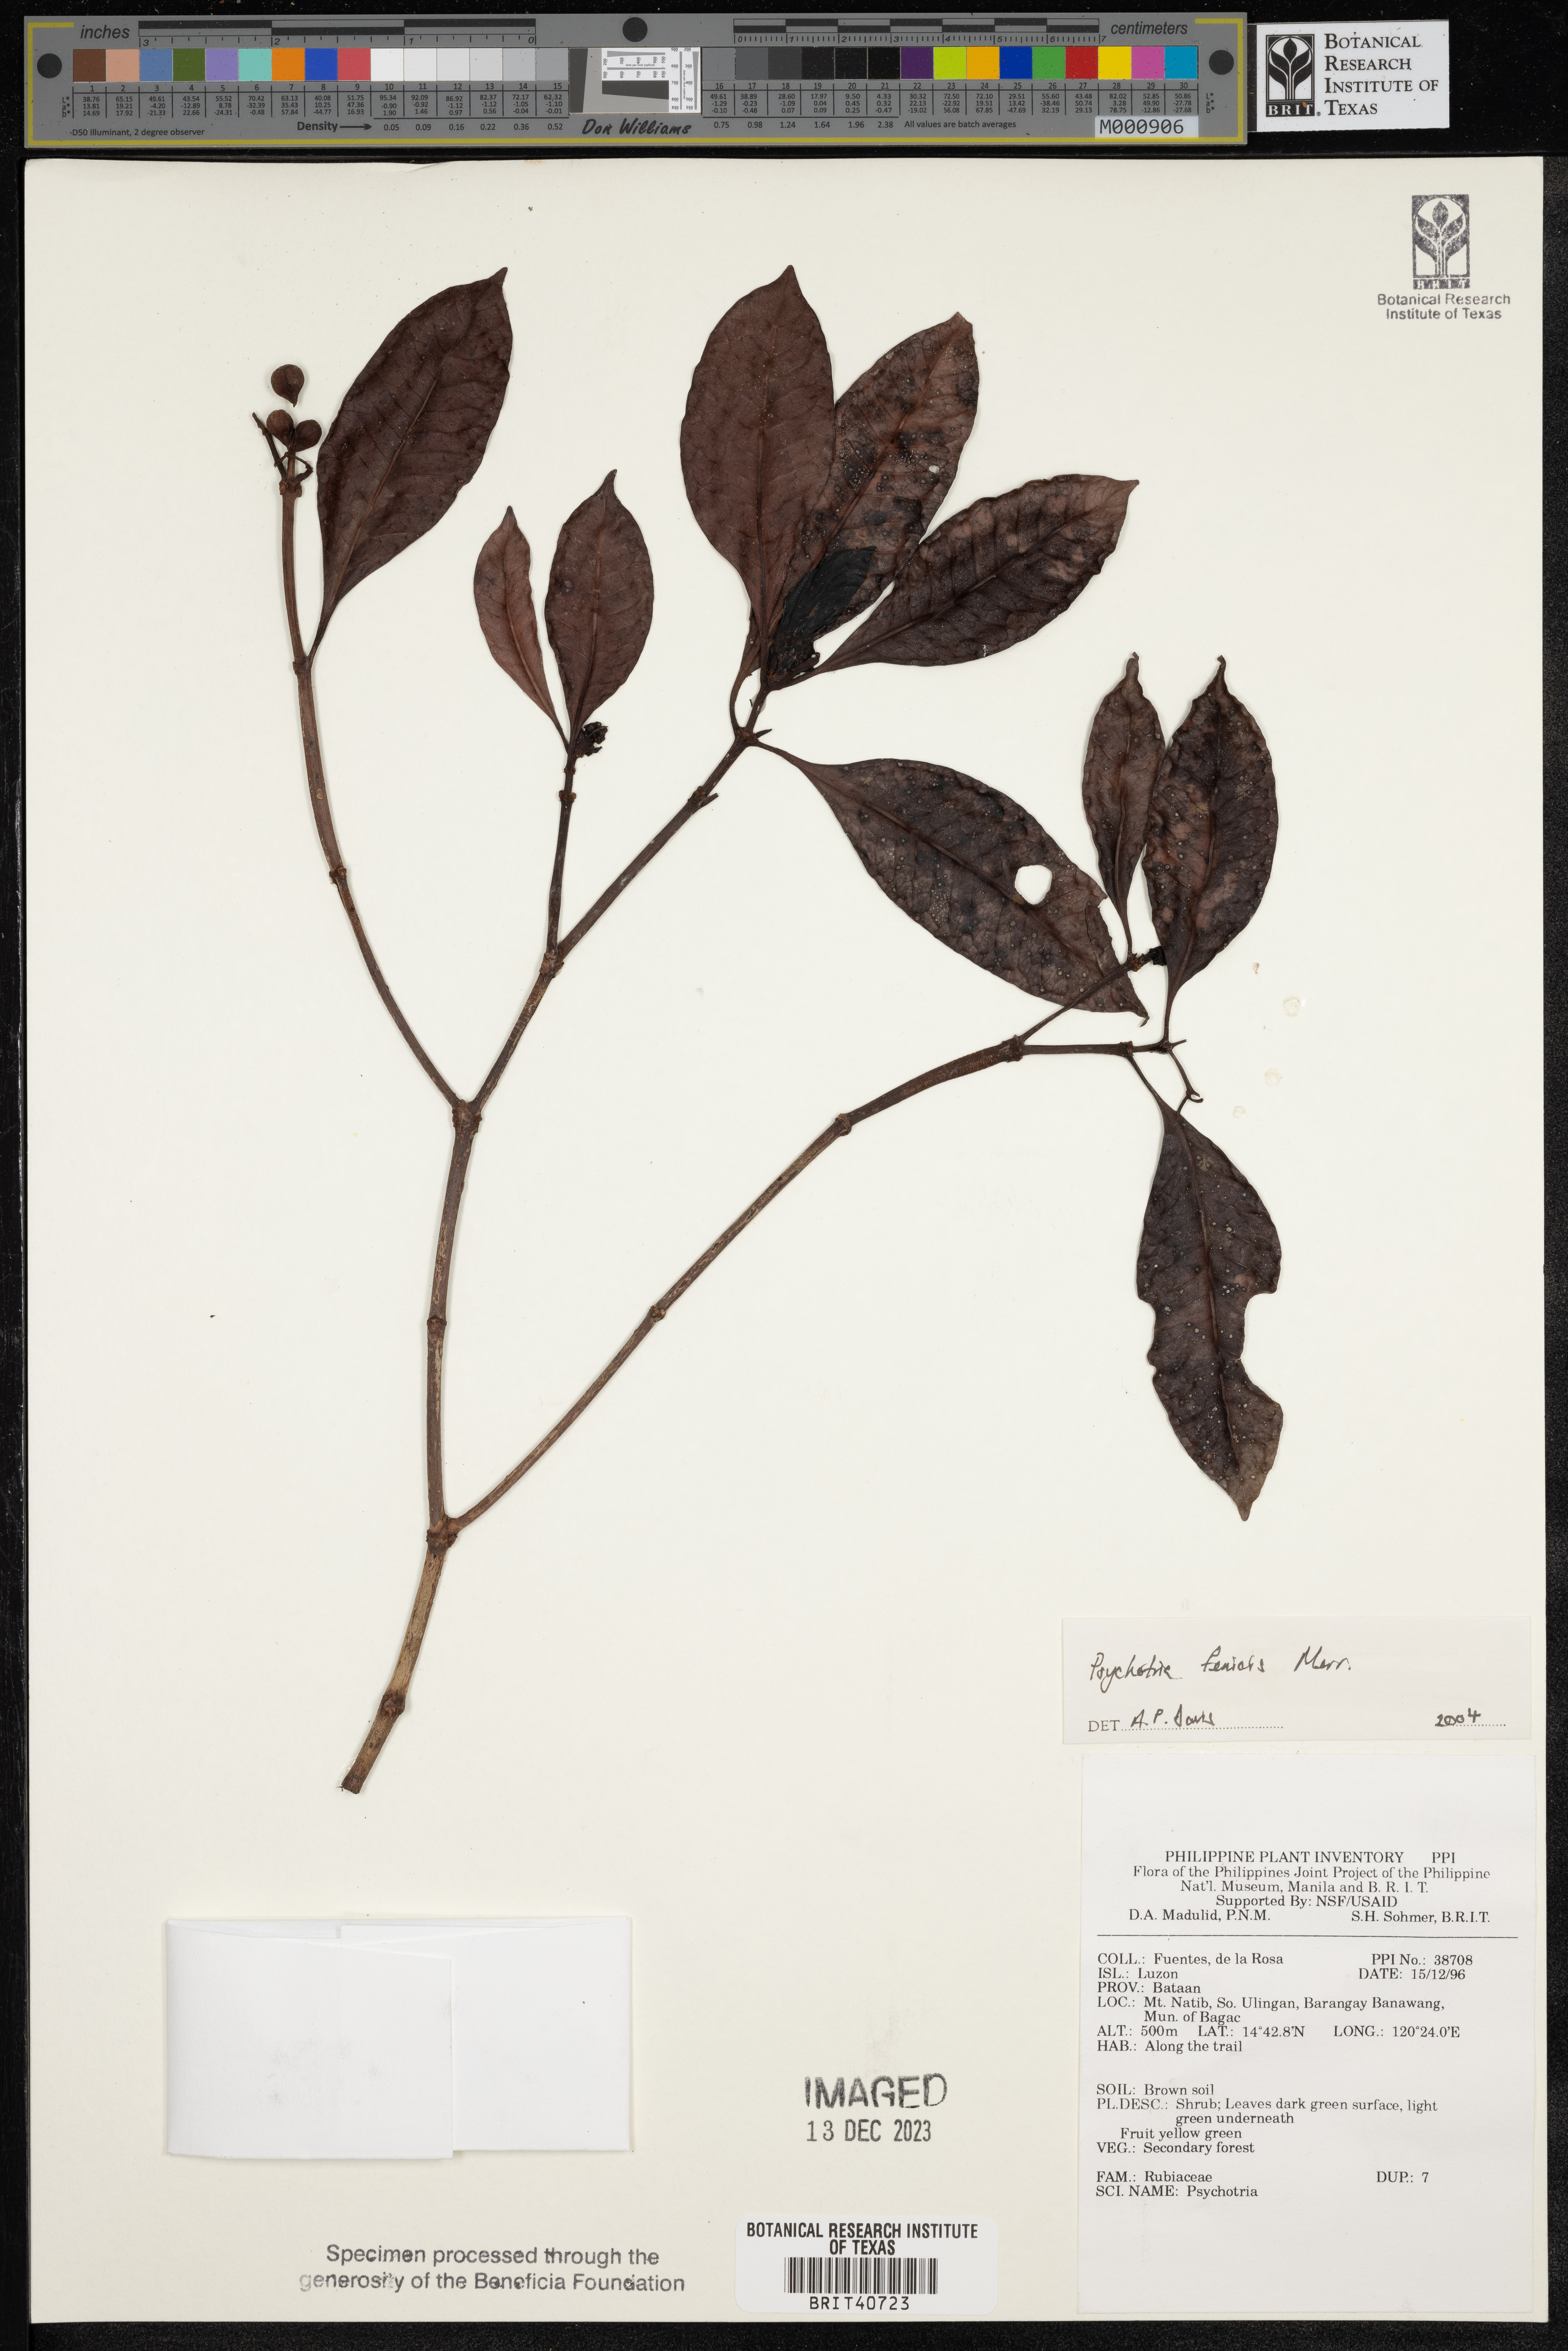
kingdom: Plantae
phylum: Tracheophyta
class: Magnoliopsida
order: Gentianales
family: Rubiaceae
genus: Psychotria
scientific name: Psychotria fenicis
